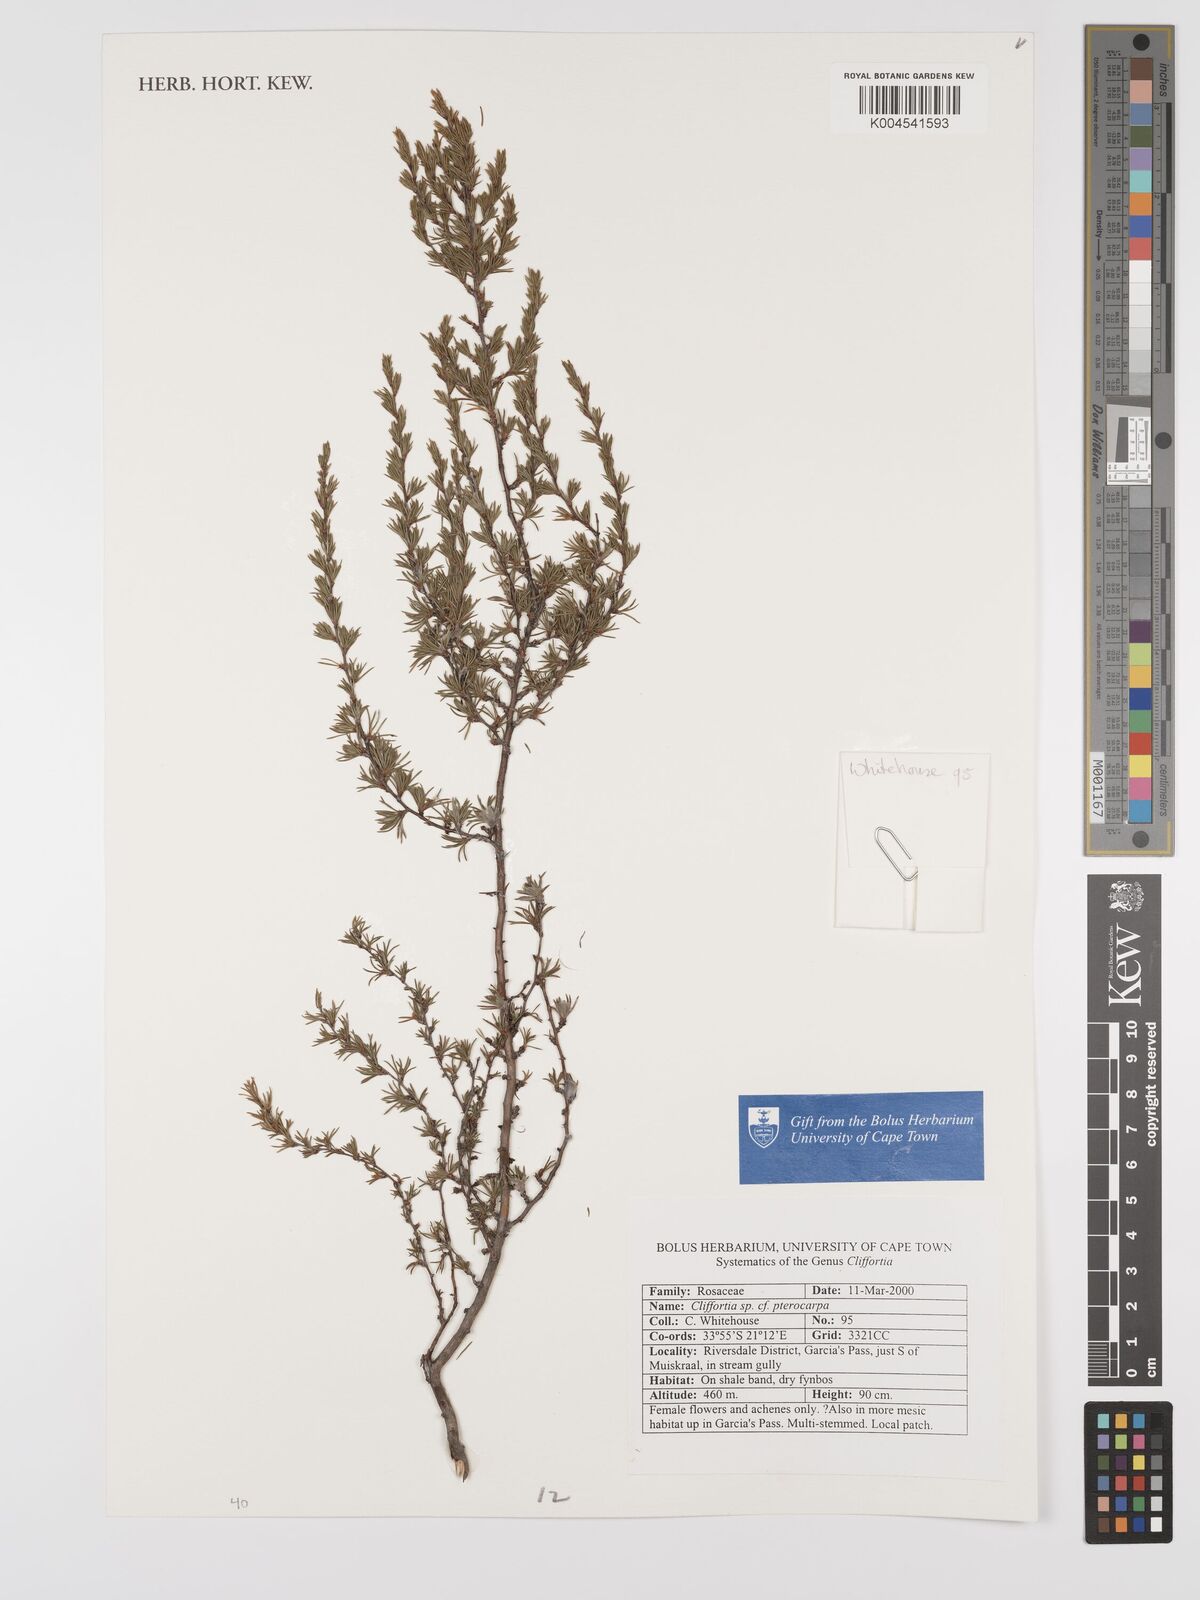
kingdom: Plantae
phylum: Tracheophyta
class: Magnoliopsida
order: Rosales
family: Rosaceae
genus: Cliffortia
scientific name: Cliffortia pterocarpa
